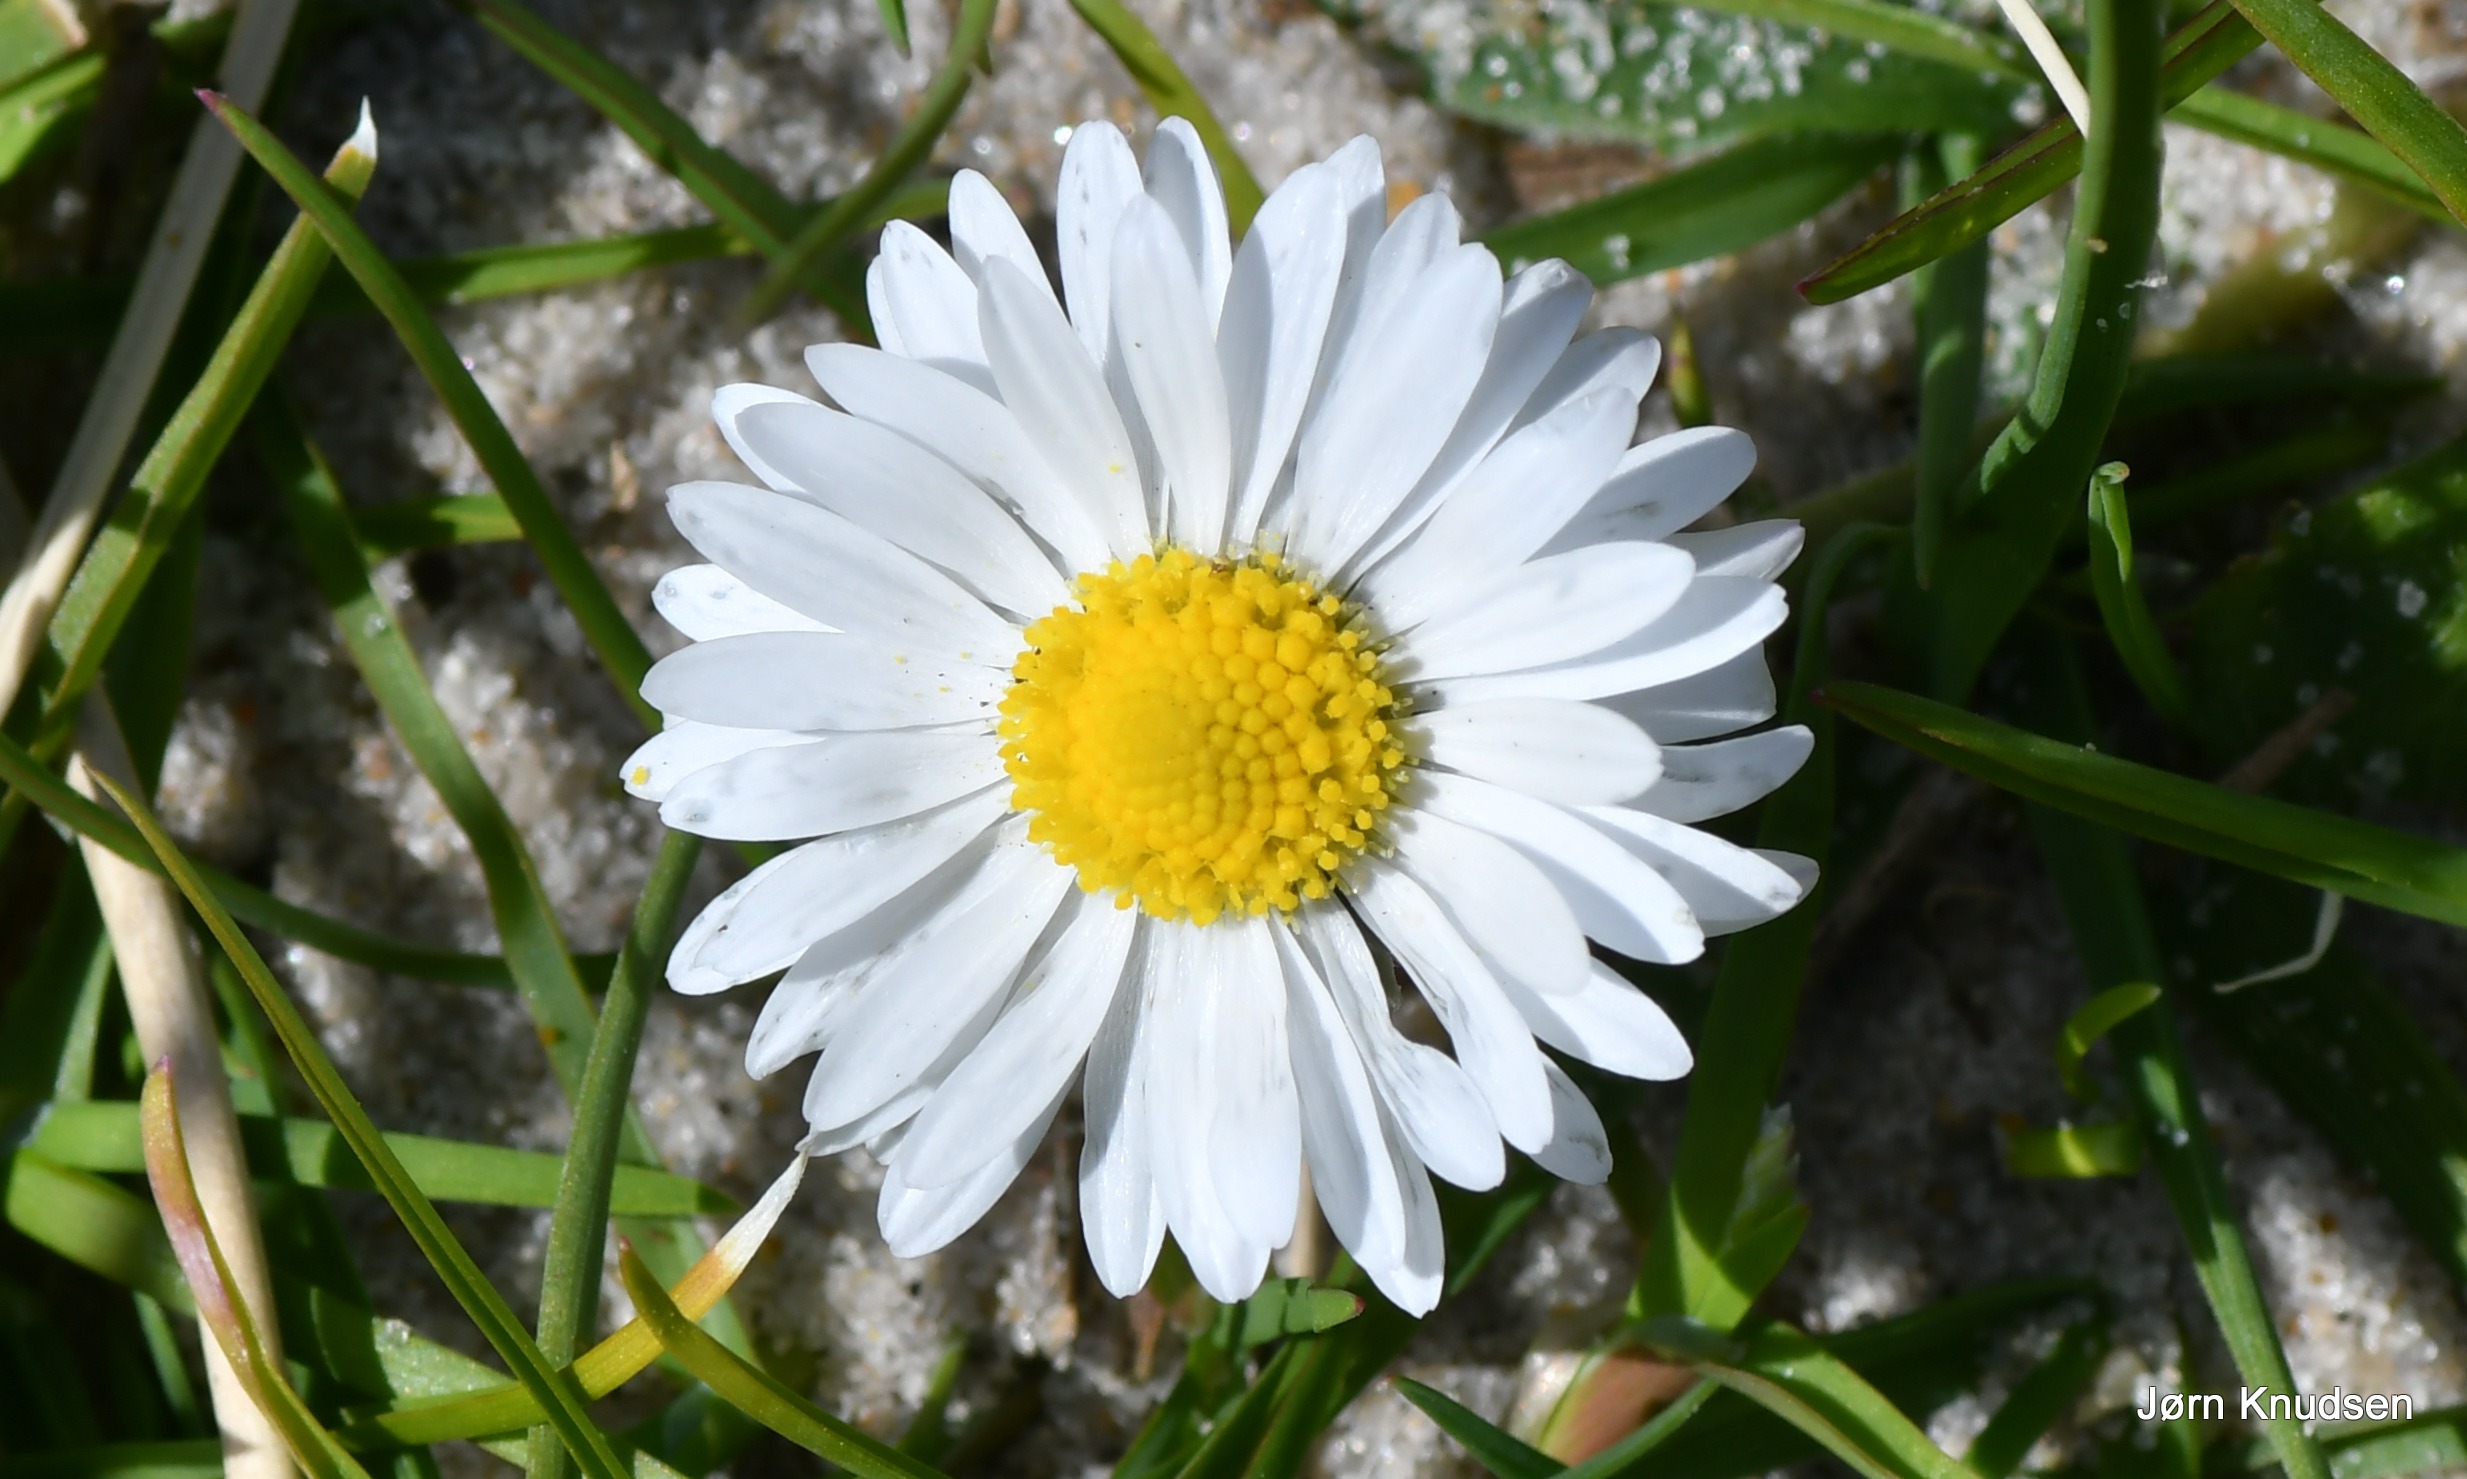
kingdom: Plantae
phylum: Tracheophyta
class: Magnoliopsida
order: Asterales
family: Asteraceae
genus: Bellis
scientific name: Bellis perennis
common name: Tusindfryd
